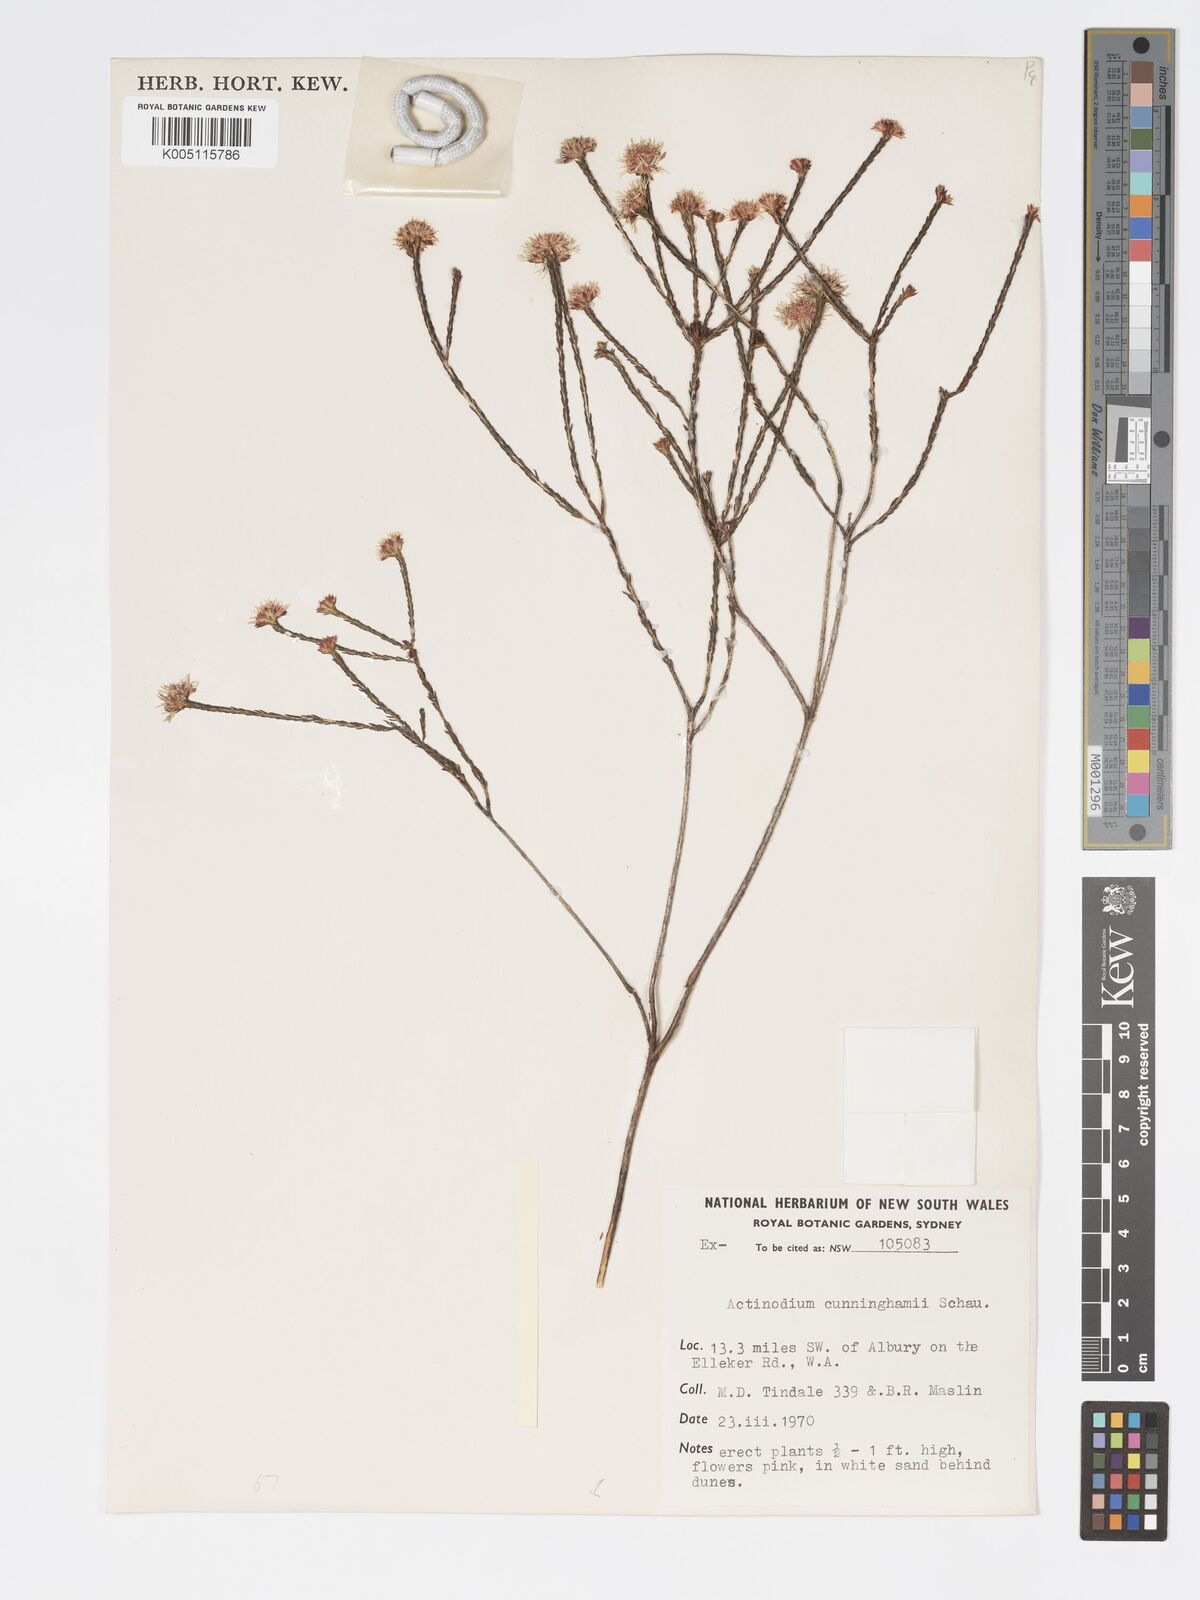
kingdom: Plantae
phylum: Tracheophyta
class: Magnoliopsida
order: Myrtales
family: Myrtaceae
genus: Actinodium
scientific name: Actinodium cunninghamii
